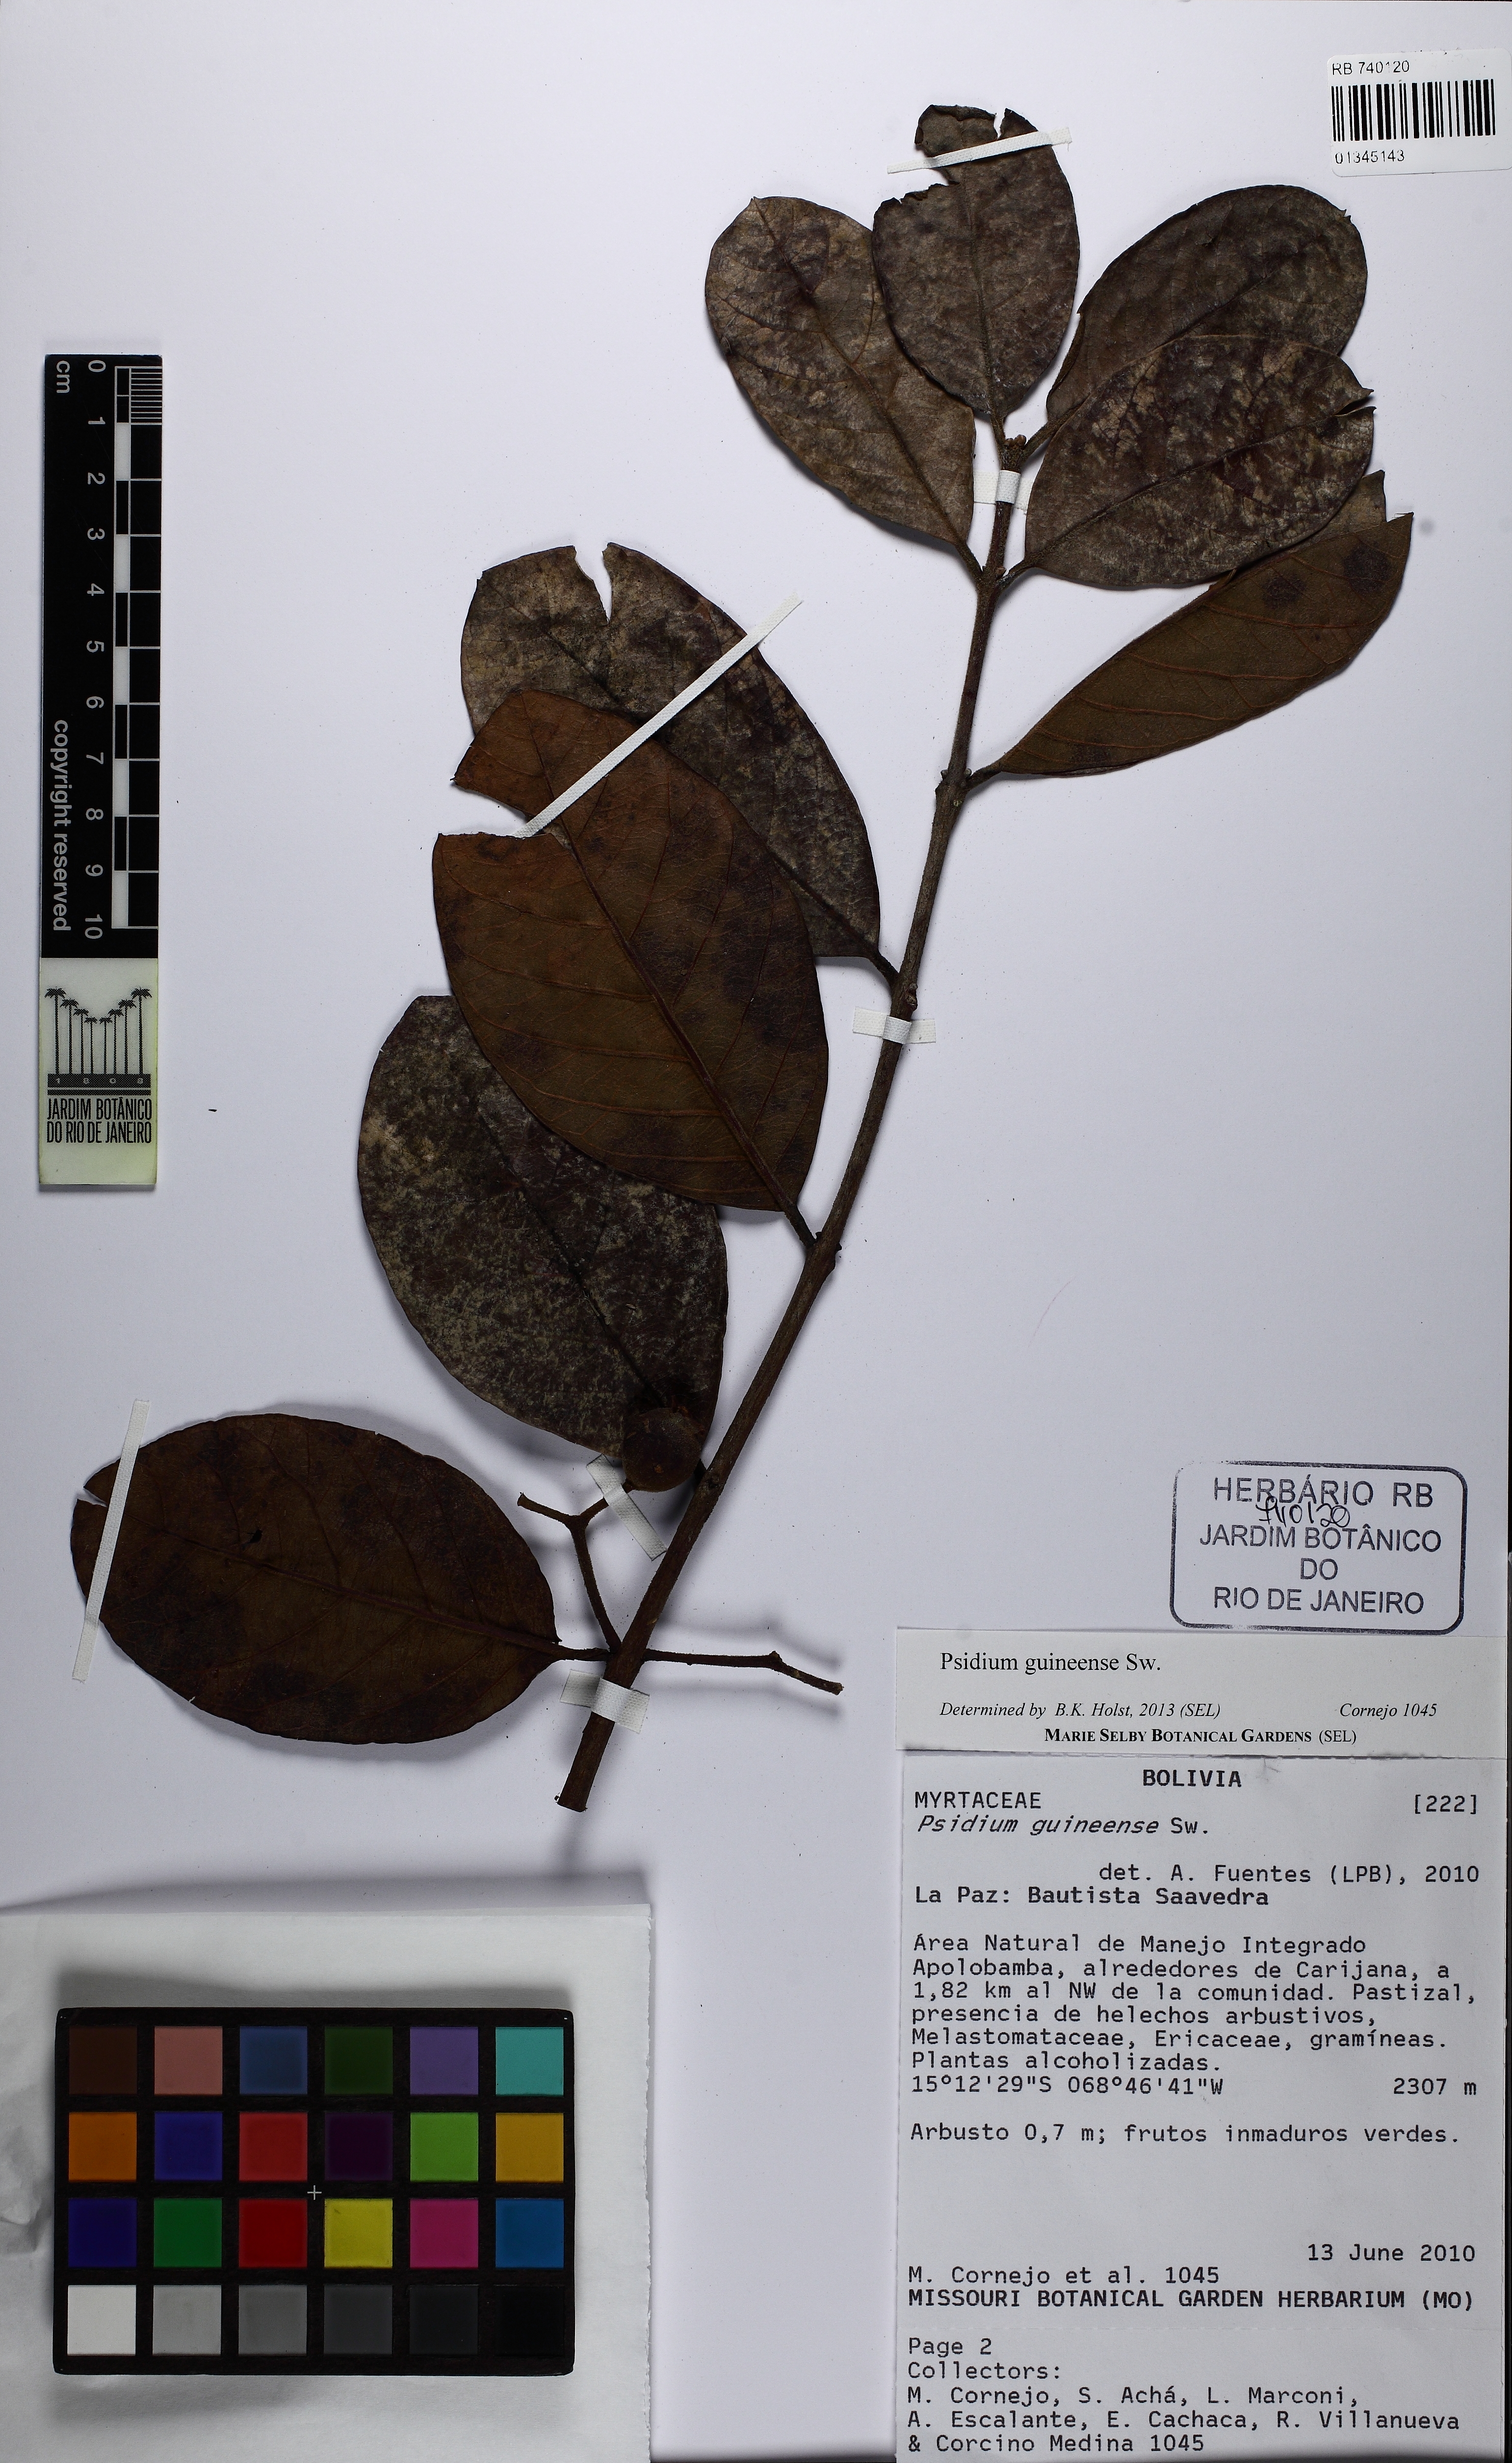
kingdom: Plantae
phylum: Tracheophyta
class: Magnoliopsida
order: Myrtales
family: Myrtaceae
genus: Psidium
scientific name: Psidium guineense
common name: Brazilian guava
